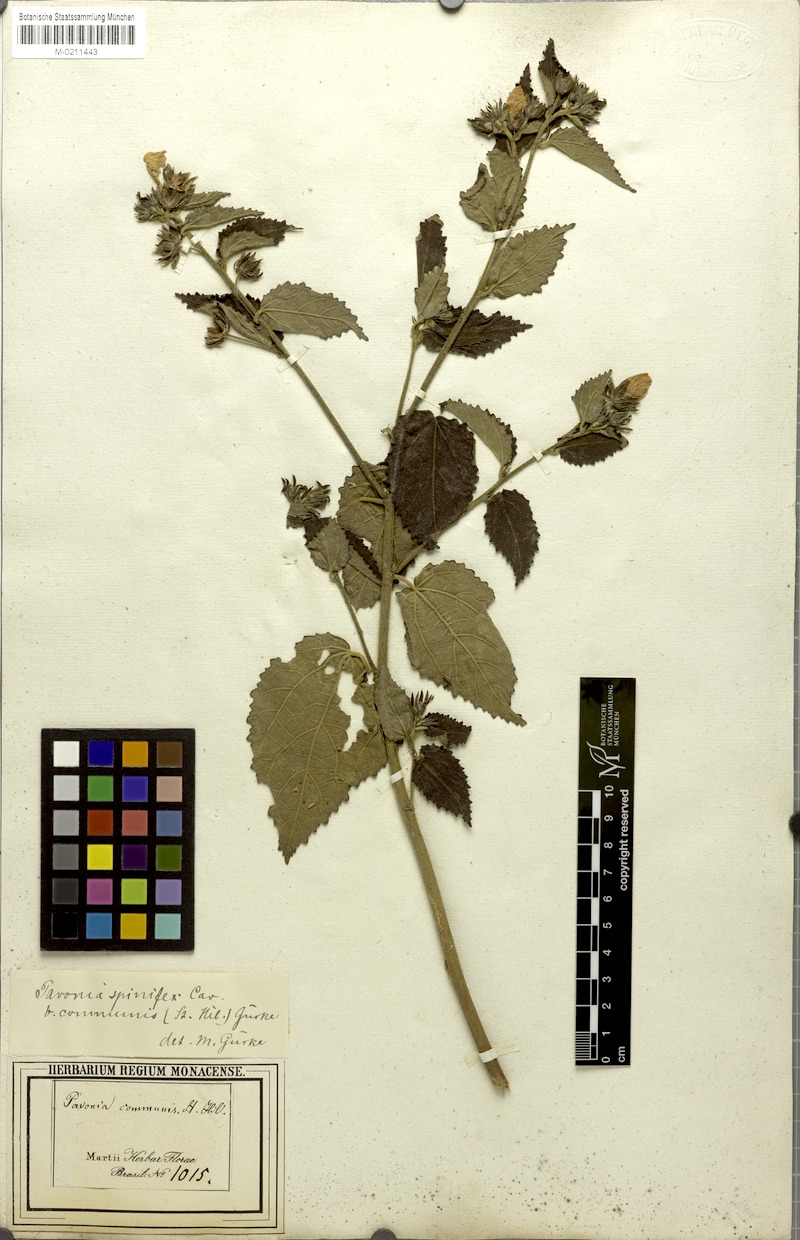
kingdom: Plantae
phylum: Tracheophyta
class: Magnoliopsida
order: Malvales
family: Malvaceae
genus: Pavonia
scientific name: Pavonia communis
